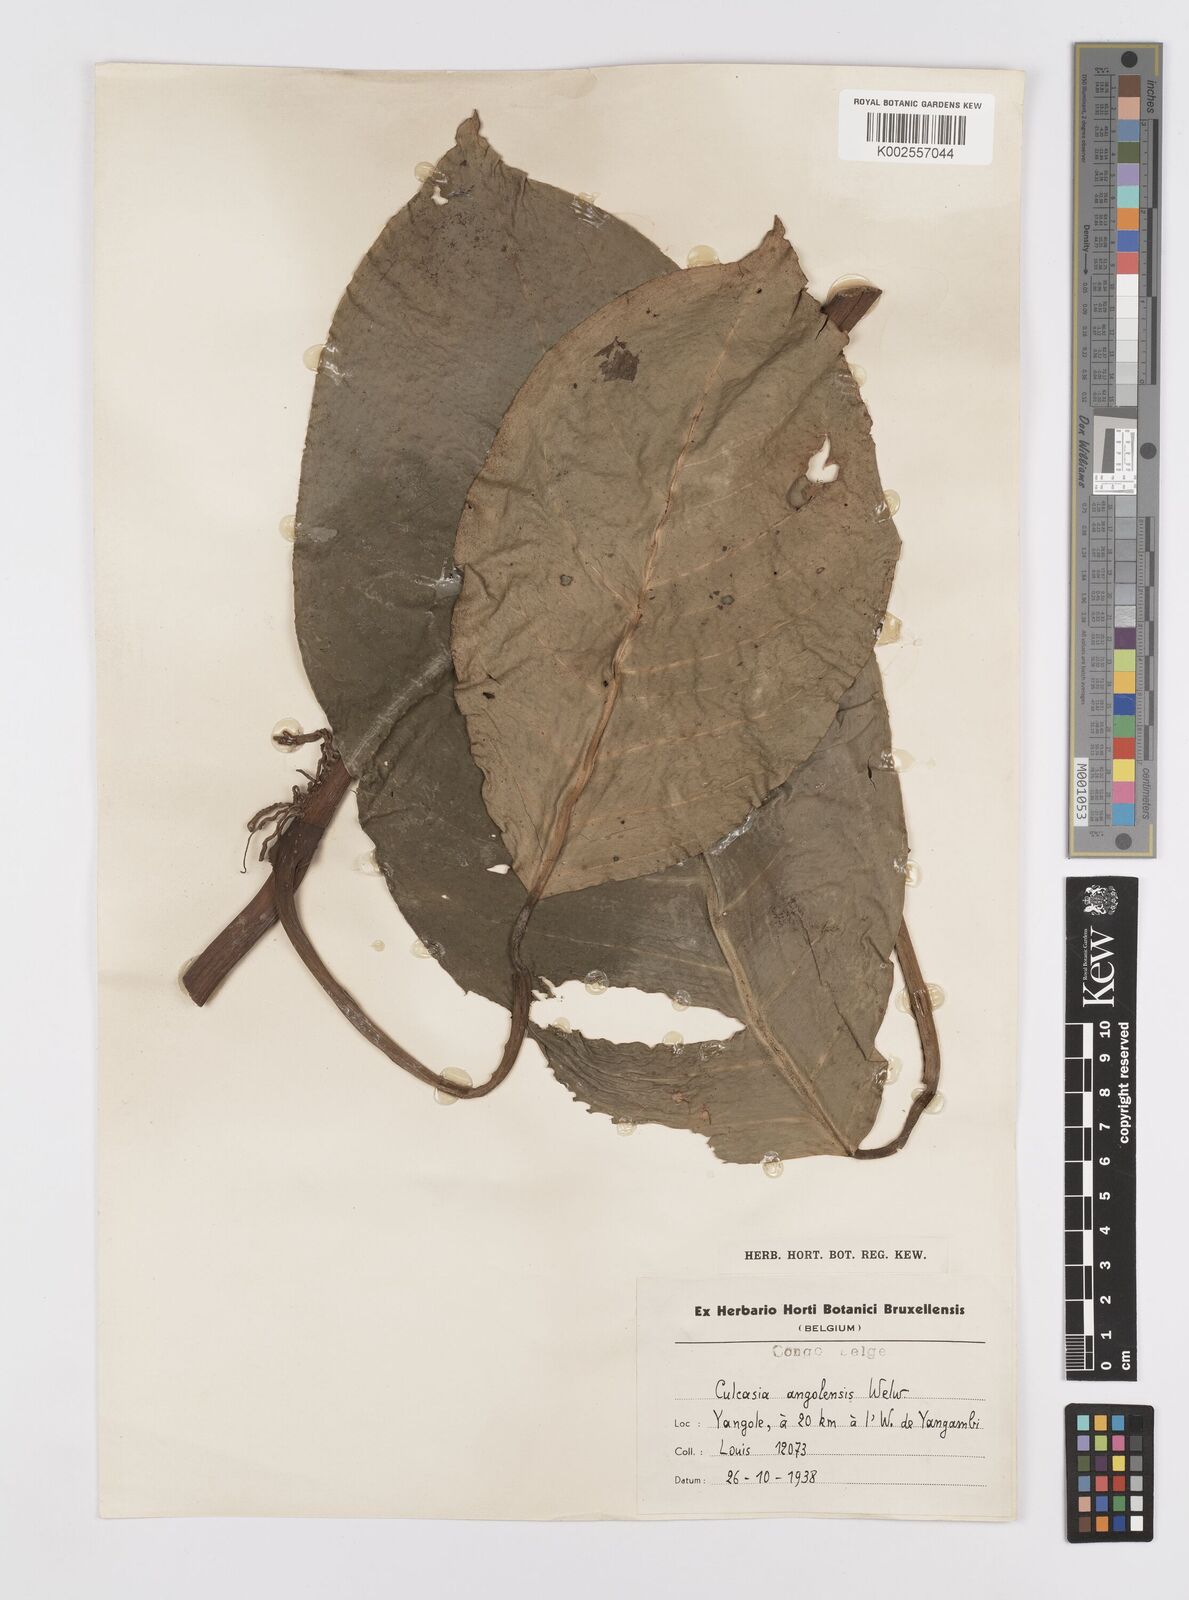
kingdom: Plantae
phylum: Tracheophyta
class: Liliopsida
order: Alismatales
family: Araceae
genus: Culcasia
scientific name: Culcasia angolensis
